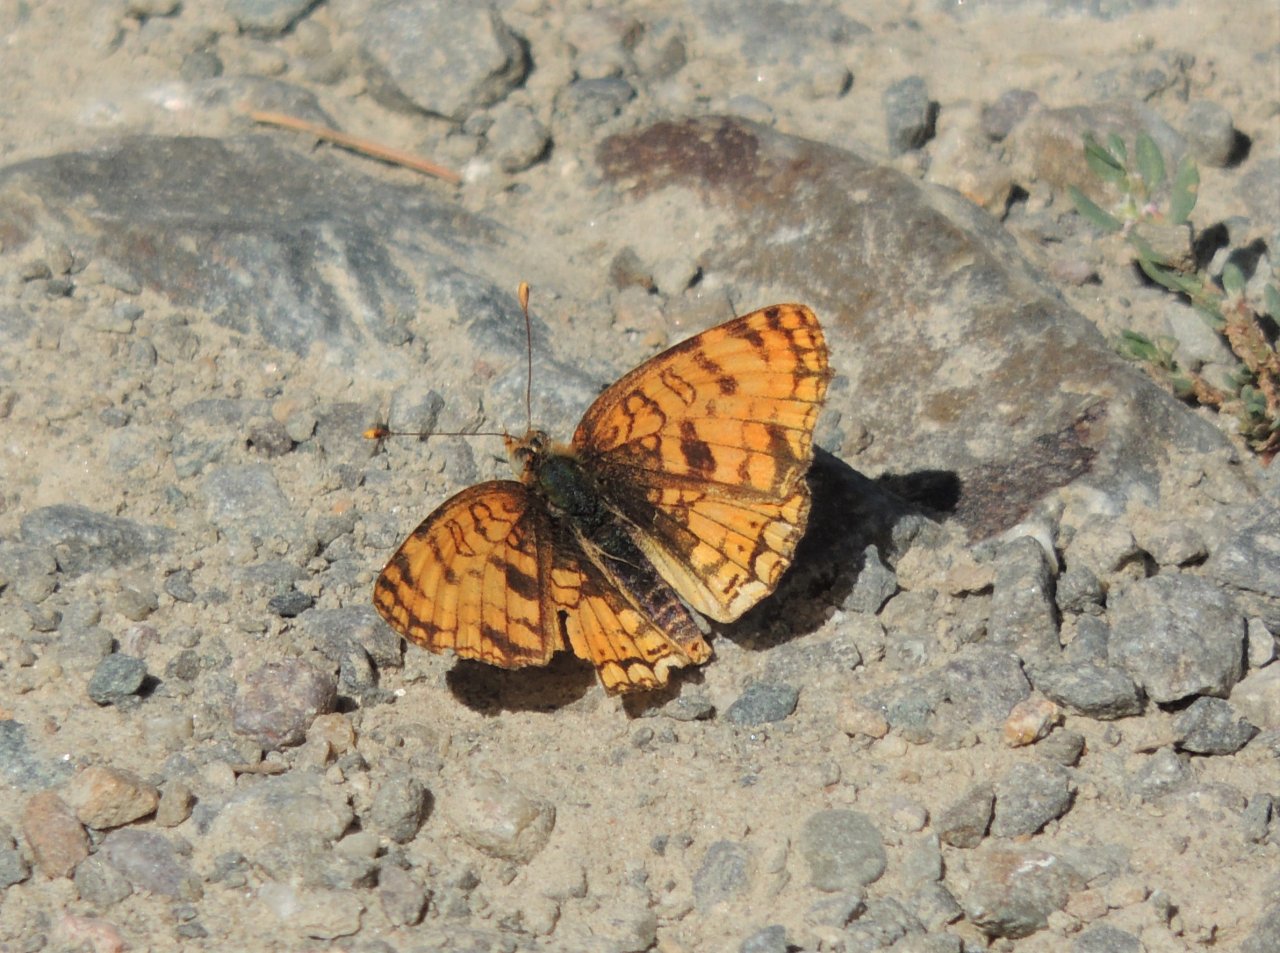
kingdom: Animalia
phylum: Arthropoda
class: Insecta
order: Lepidoptera
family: Nymphalidae
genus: Phyciodes
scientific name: Phyciodes pallida
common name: Pale Crescent
